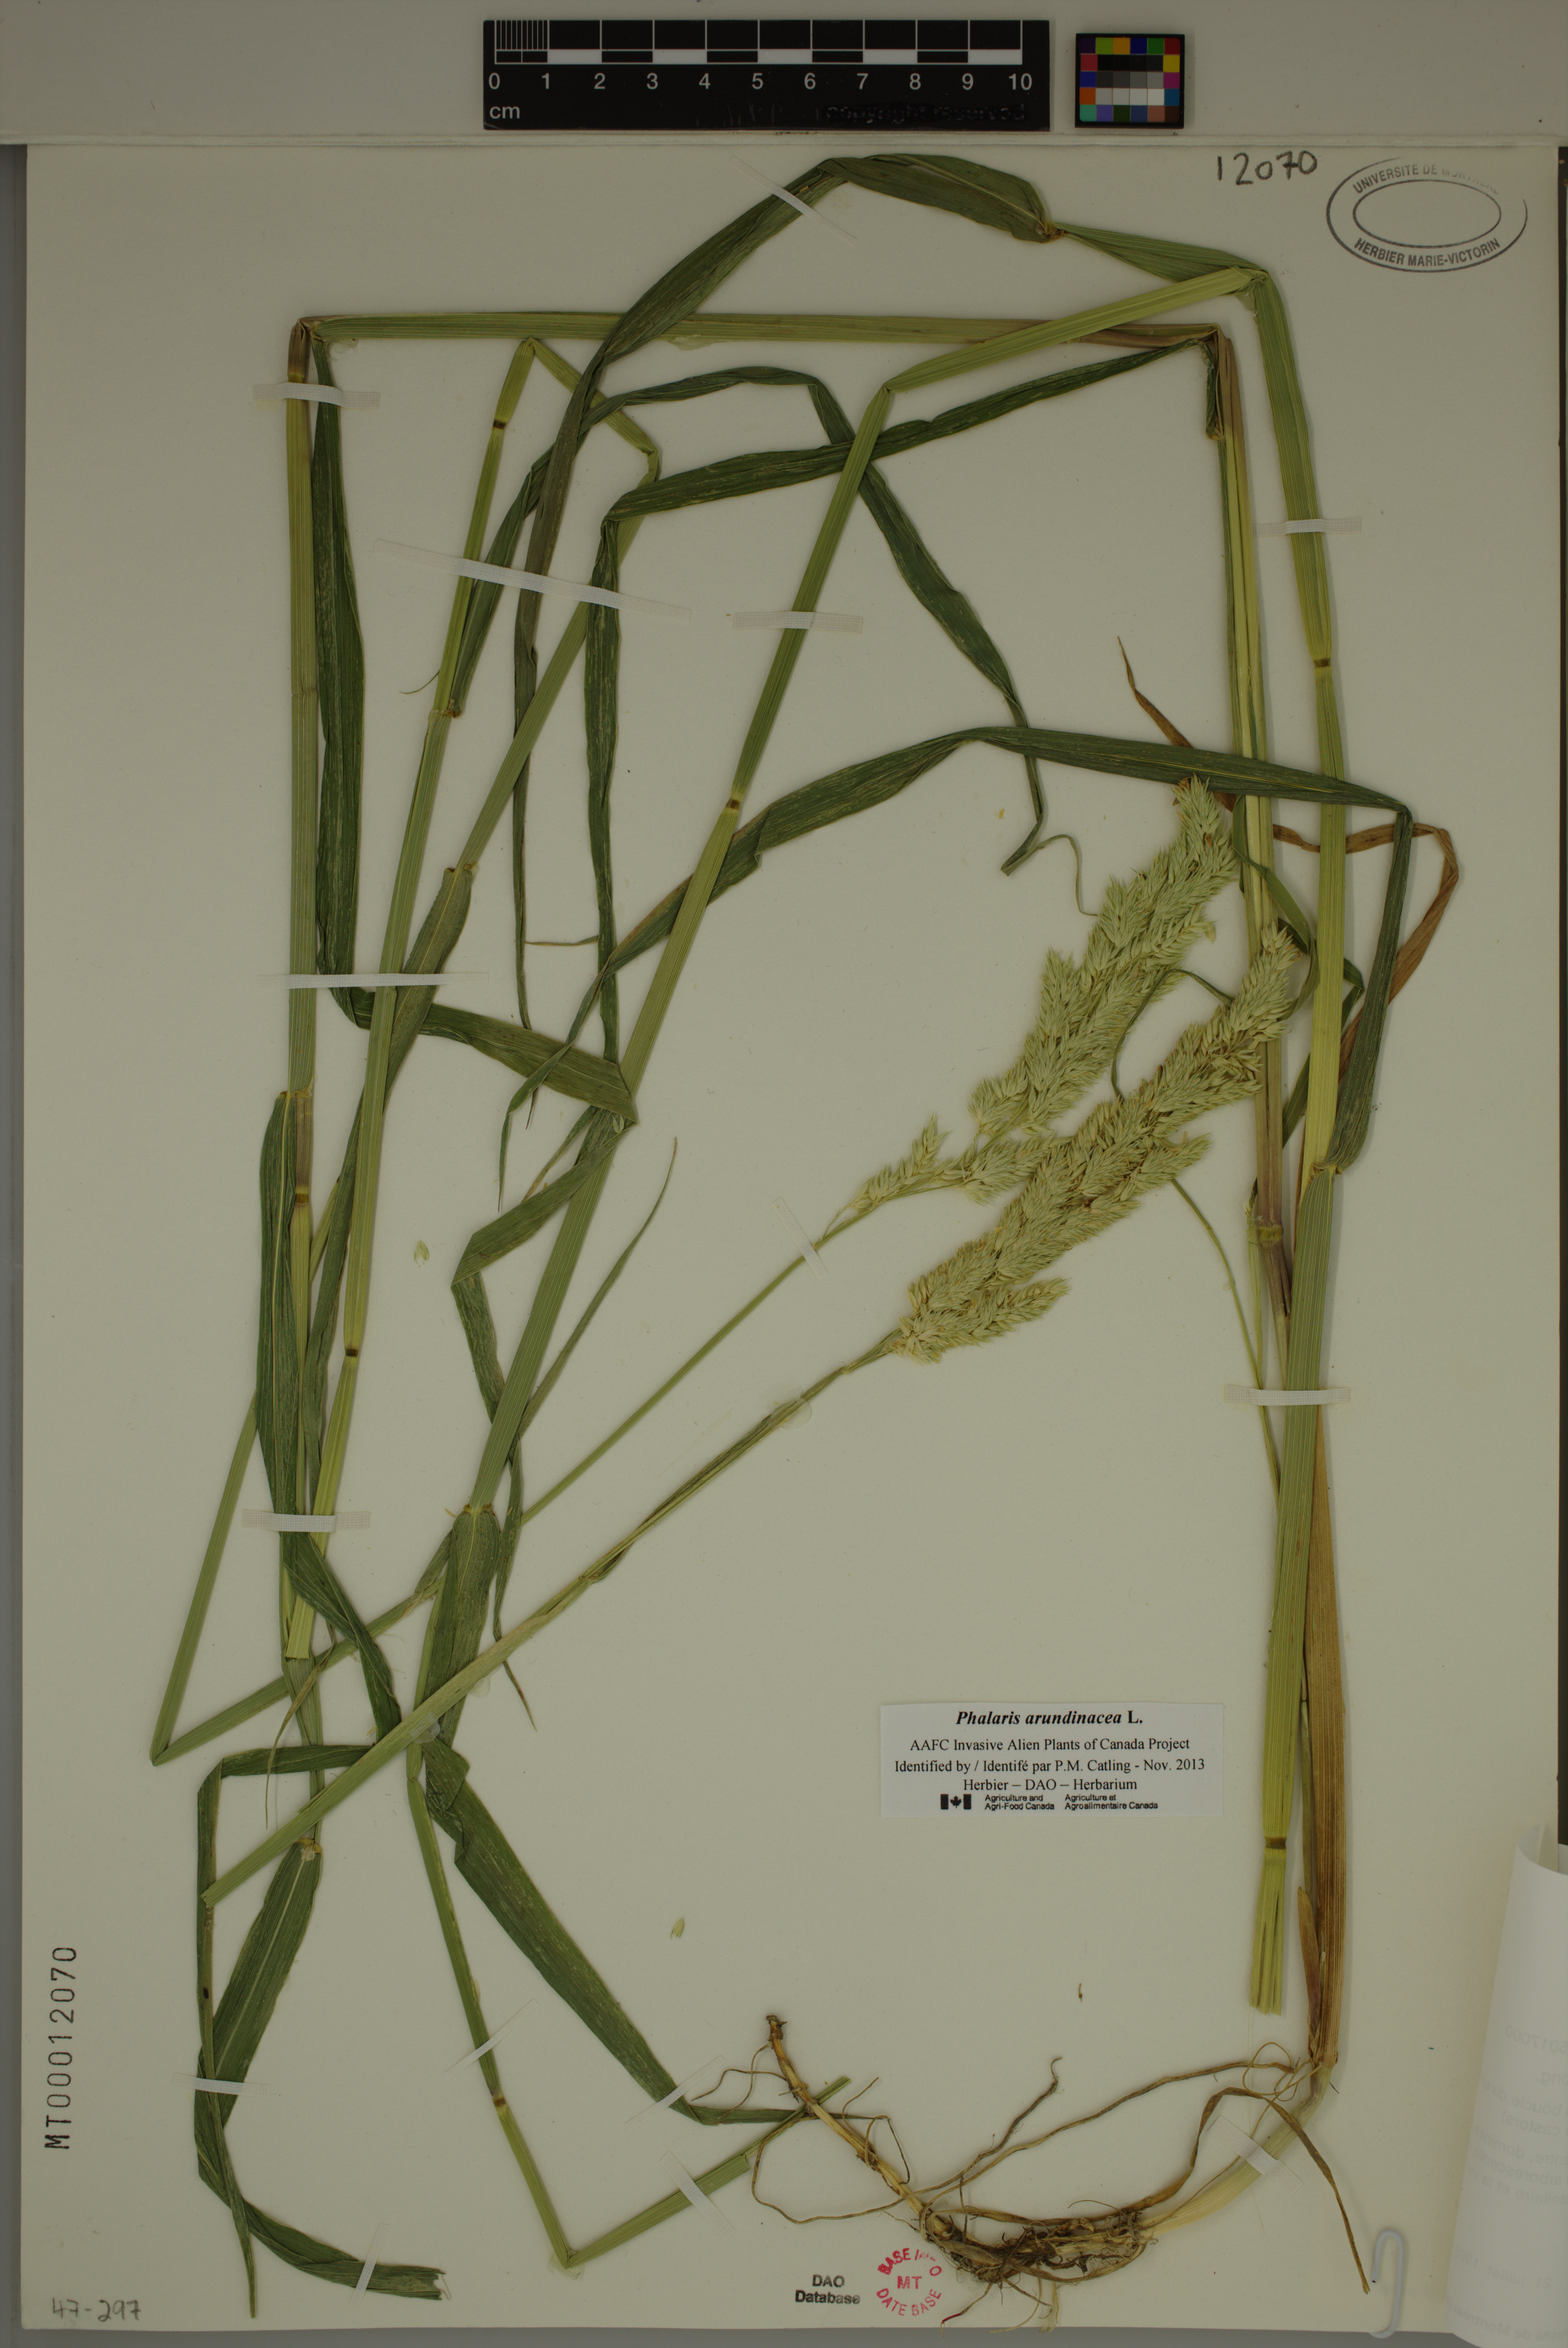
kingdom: Plantae
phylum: Tracheophyta
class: Liliopsida
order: Poales
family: Poaceae
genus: Phalaris
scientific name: Phalaris arundinacea
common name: Reed canary-grass
